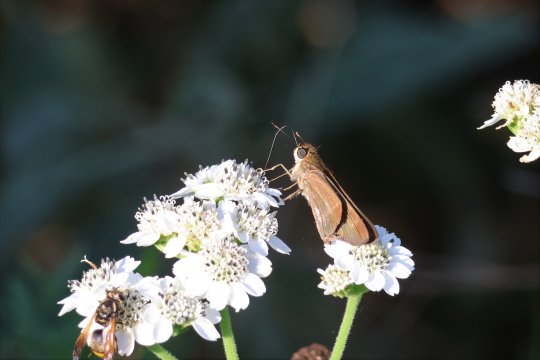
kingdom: Animalia
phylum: Arthropoda
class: Insecta
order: Lepidoptera
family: Hesperiidae
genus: Turesis
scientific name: Turesis lucas
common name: Purple-washed Skipper
